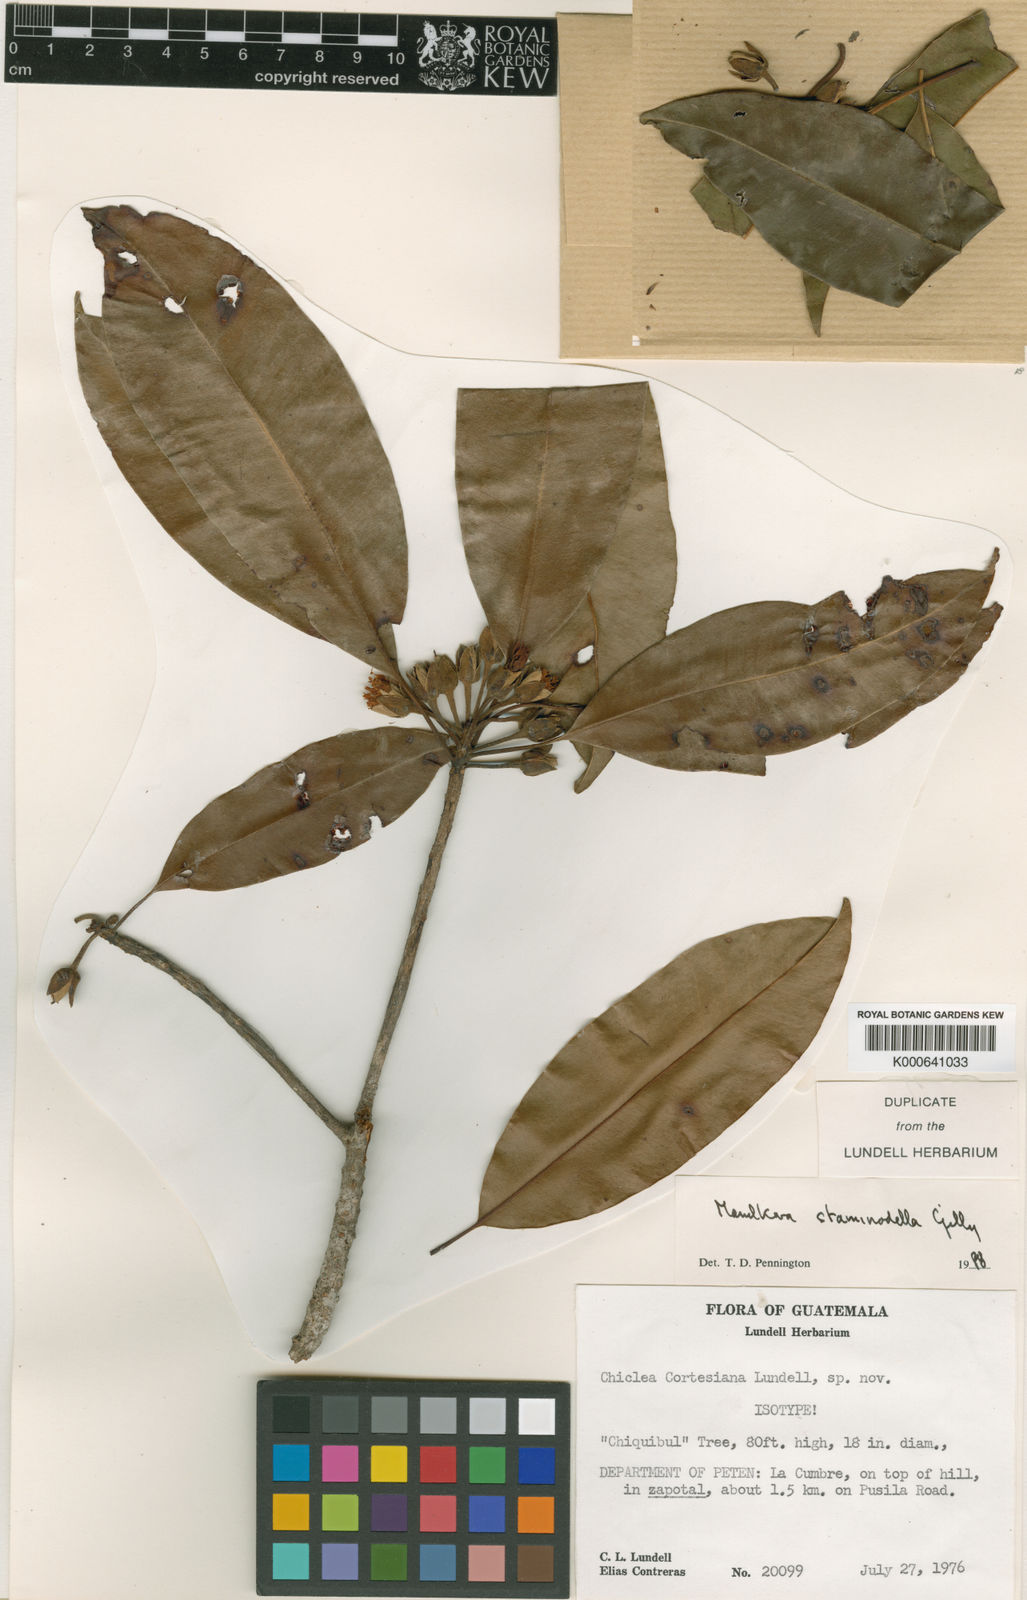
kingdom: Plantae
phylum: Tracheophyta
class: Magnoliopsida
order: Ericales
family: Sapotaceae
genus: Manilkara
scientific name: Manilkara staminodella
